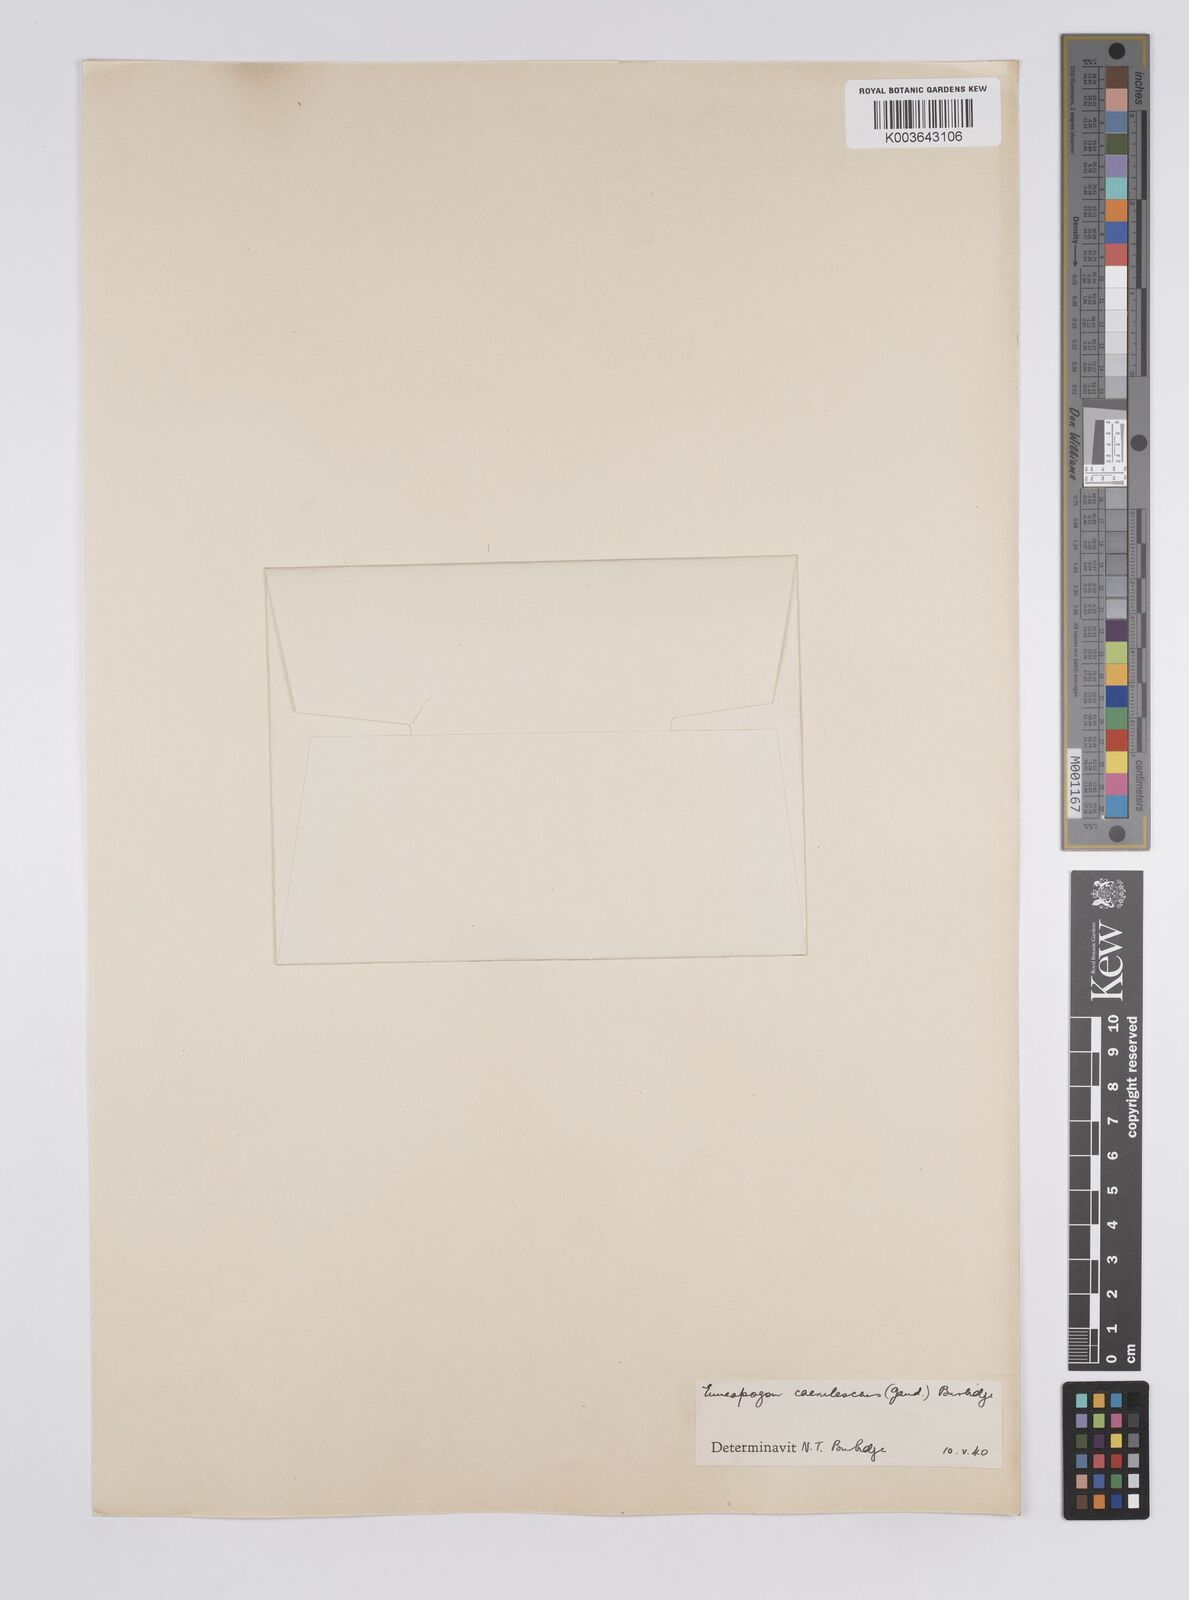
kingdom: Plantae
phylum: Tracheophyta
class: Liliopsida
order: Poales
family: Poaceae
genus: Enneapogon
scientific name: Enneapogon caerulescens
